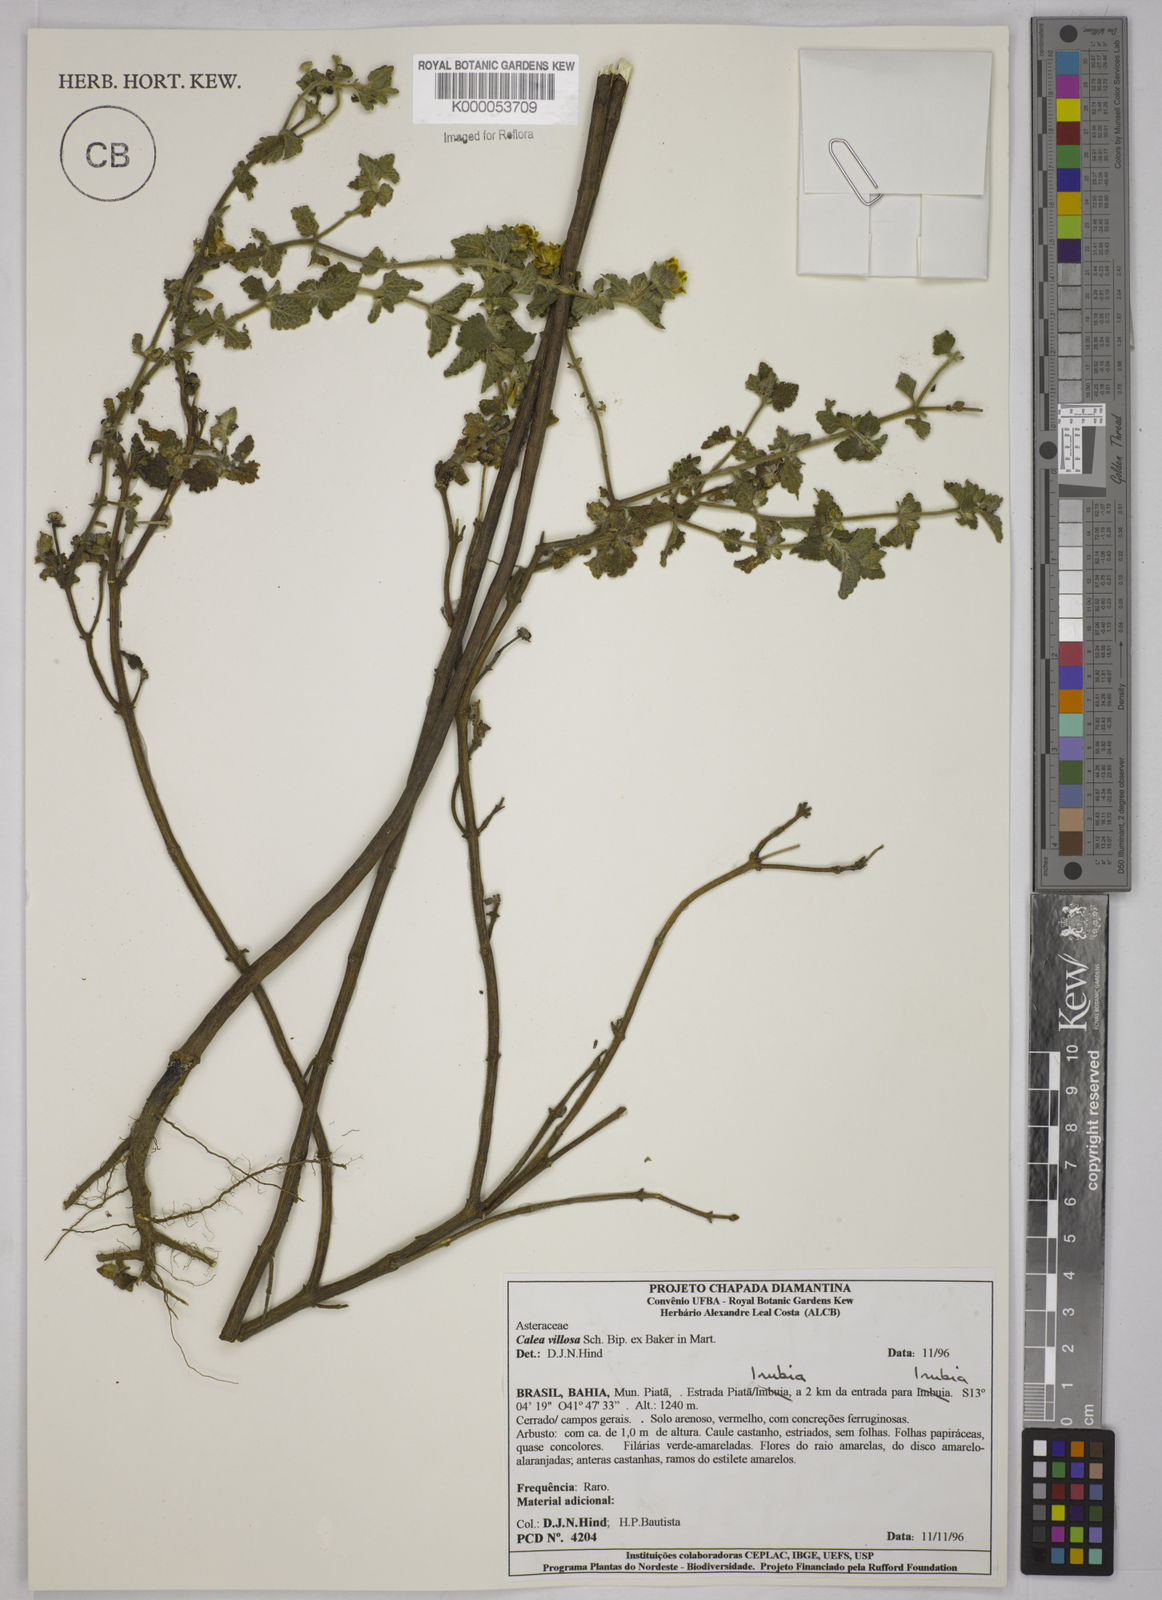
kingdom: Plantae
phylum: Tracheophyta
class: Magnoliopsida
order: Asterales
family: Asteraceae
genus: Calea
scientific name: Calea villosa
